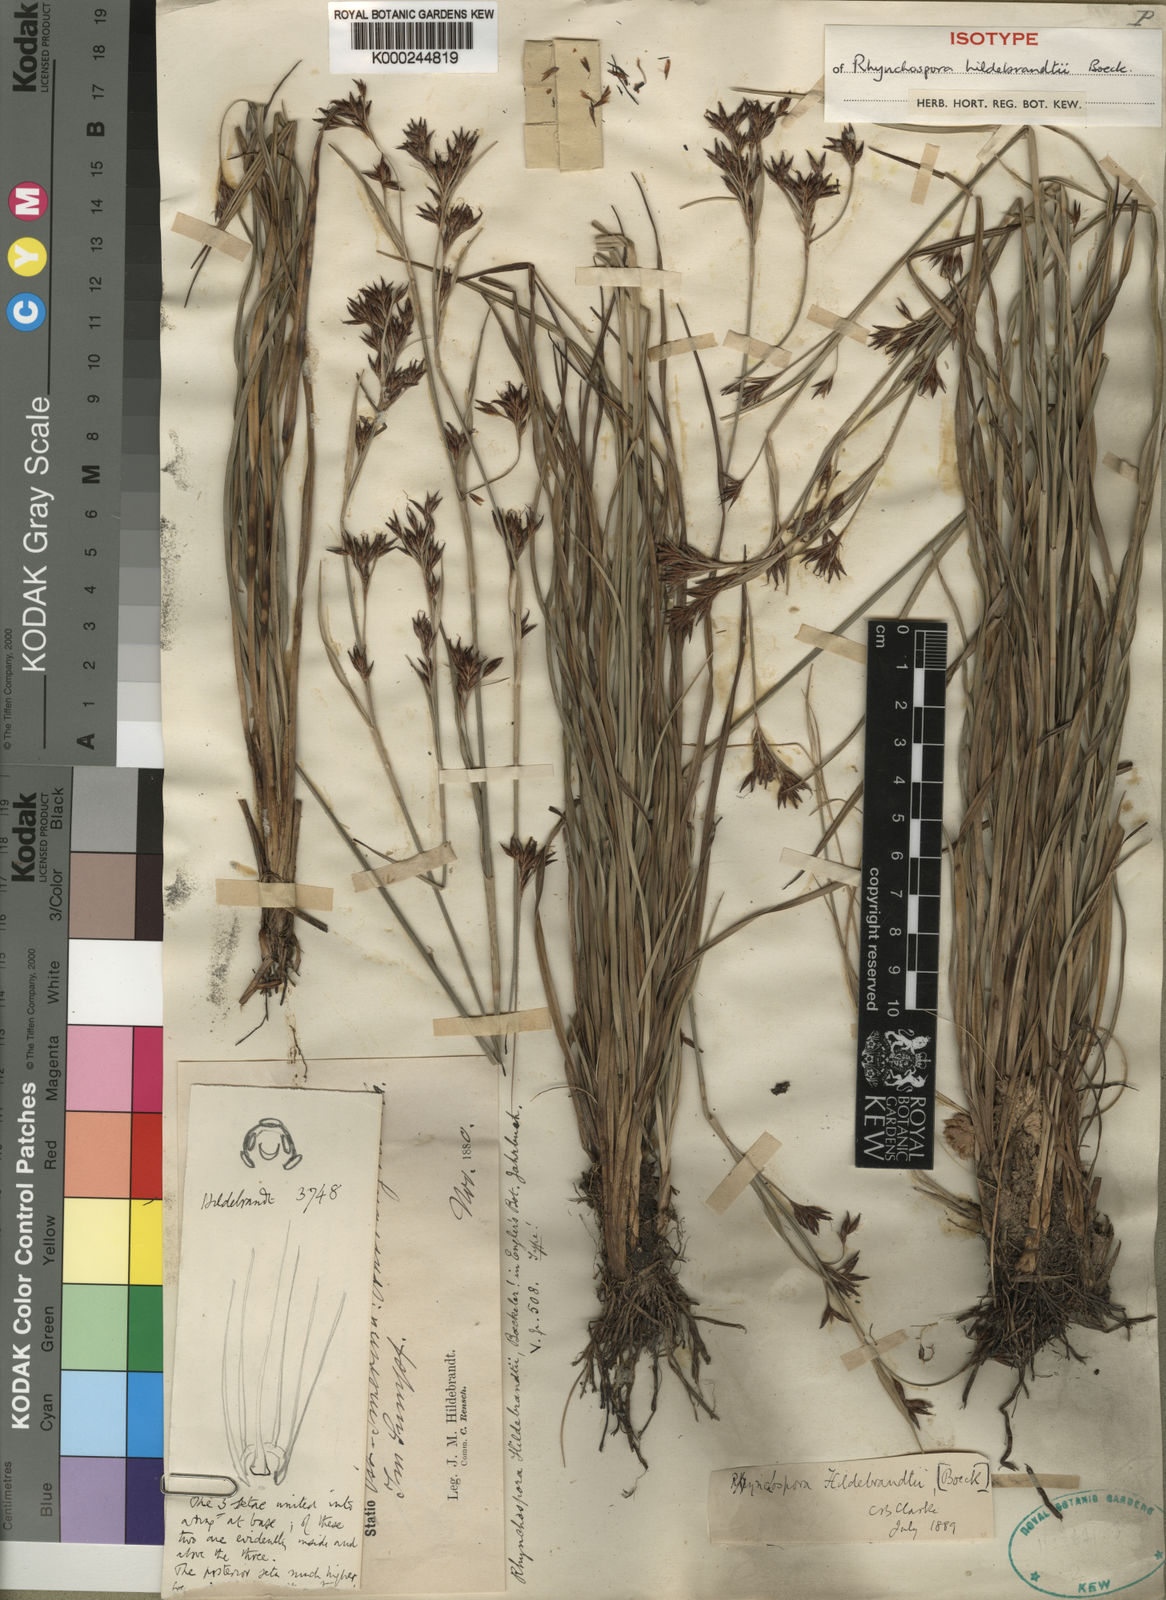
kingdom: Plantae
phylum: Tracheophyta
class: Liliopsida
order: Poales
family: Cyperaceae
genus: Rhynchospora
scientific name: Rhynchospora
